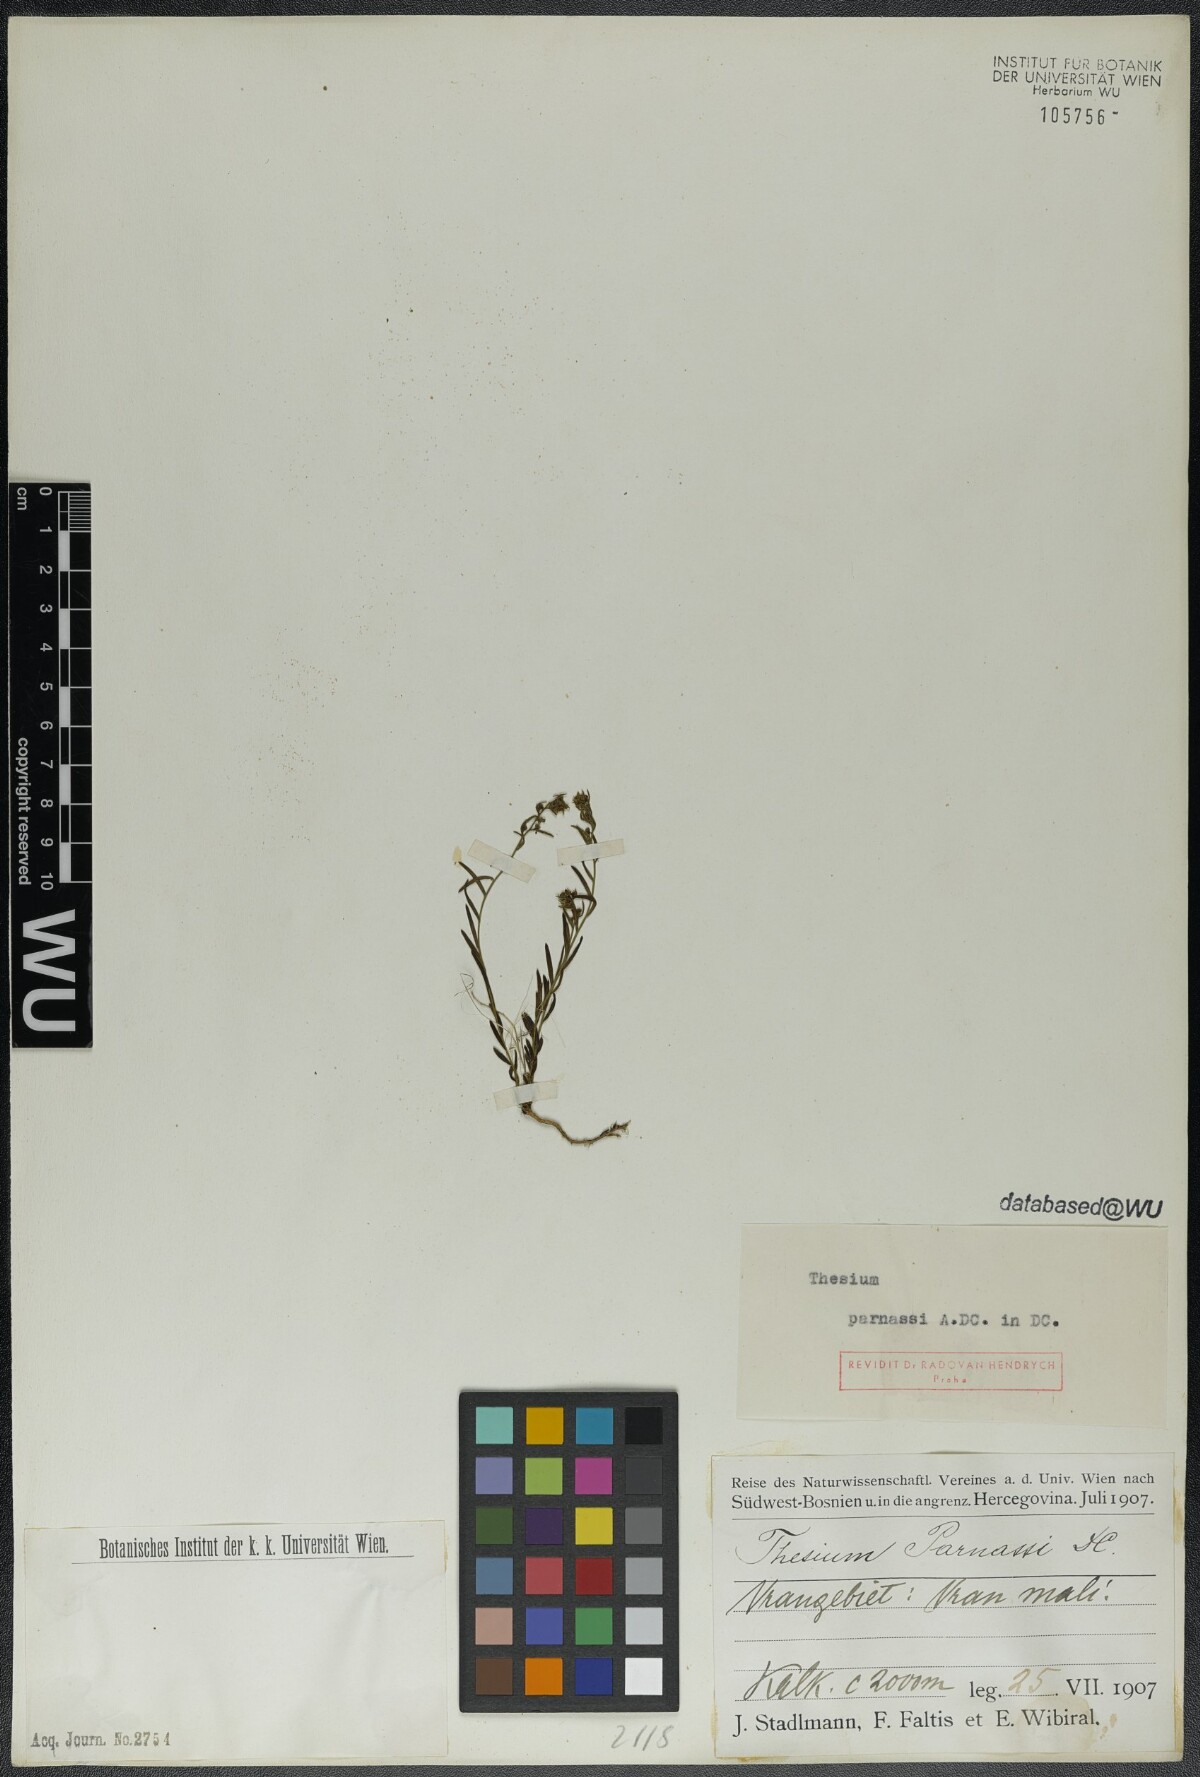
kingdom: Plantae
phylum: Tracheophyta
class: Magnoliopsida
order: Santalales
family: Thesiaceae
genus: Thesium
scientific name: Thesium parnassi
